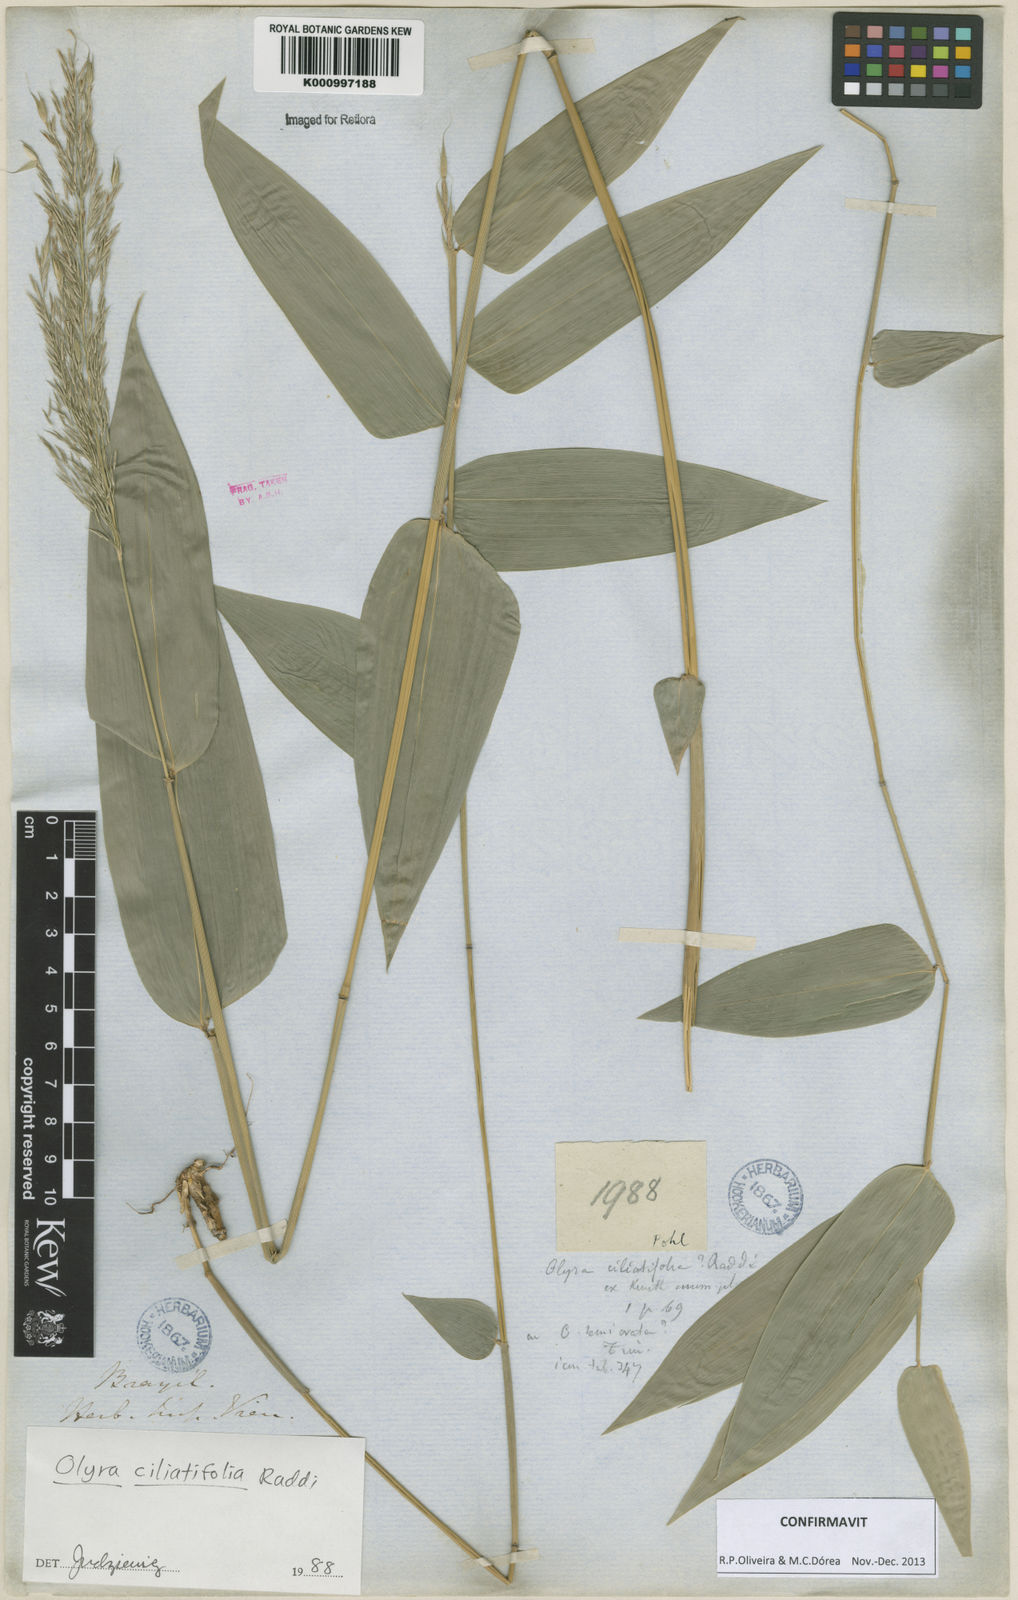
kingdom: Plantae
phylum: Tracheophyta
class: Liliopsida
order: Poales
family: Poaceae
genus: Olyra
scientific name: Olyra ciliatifolia
